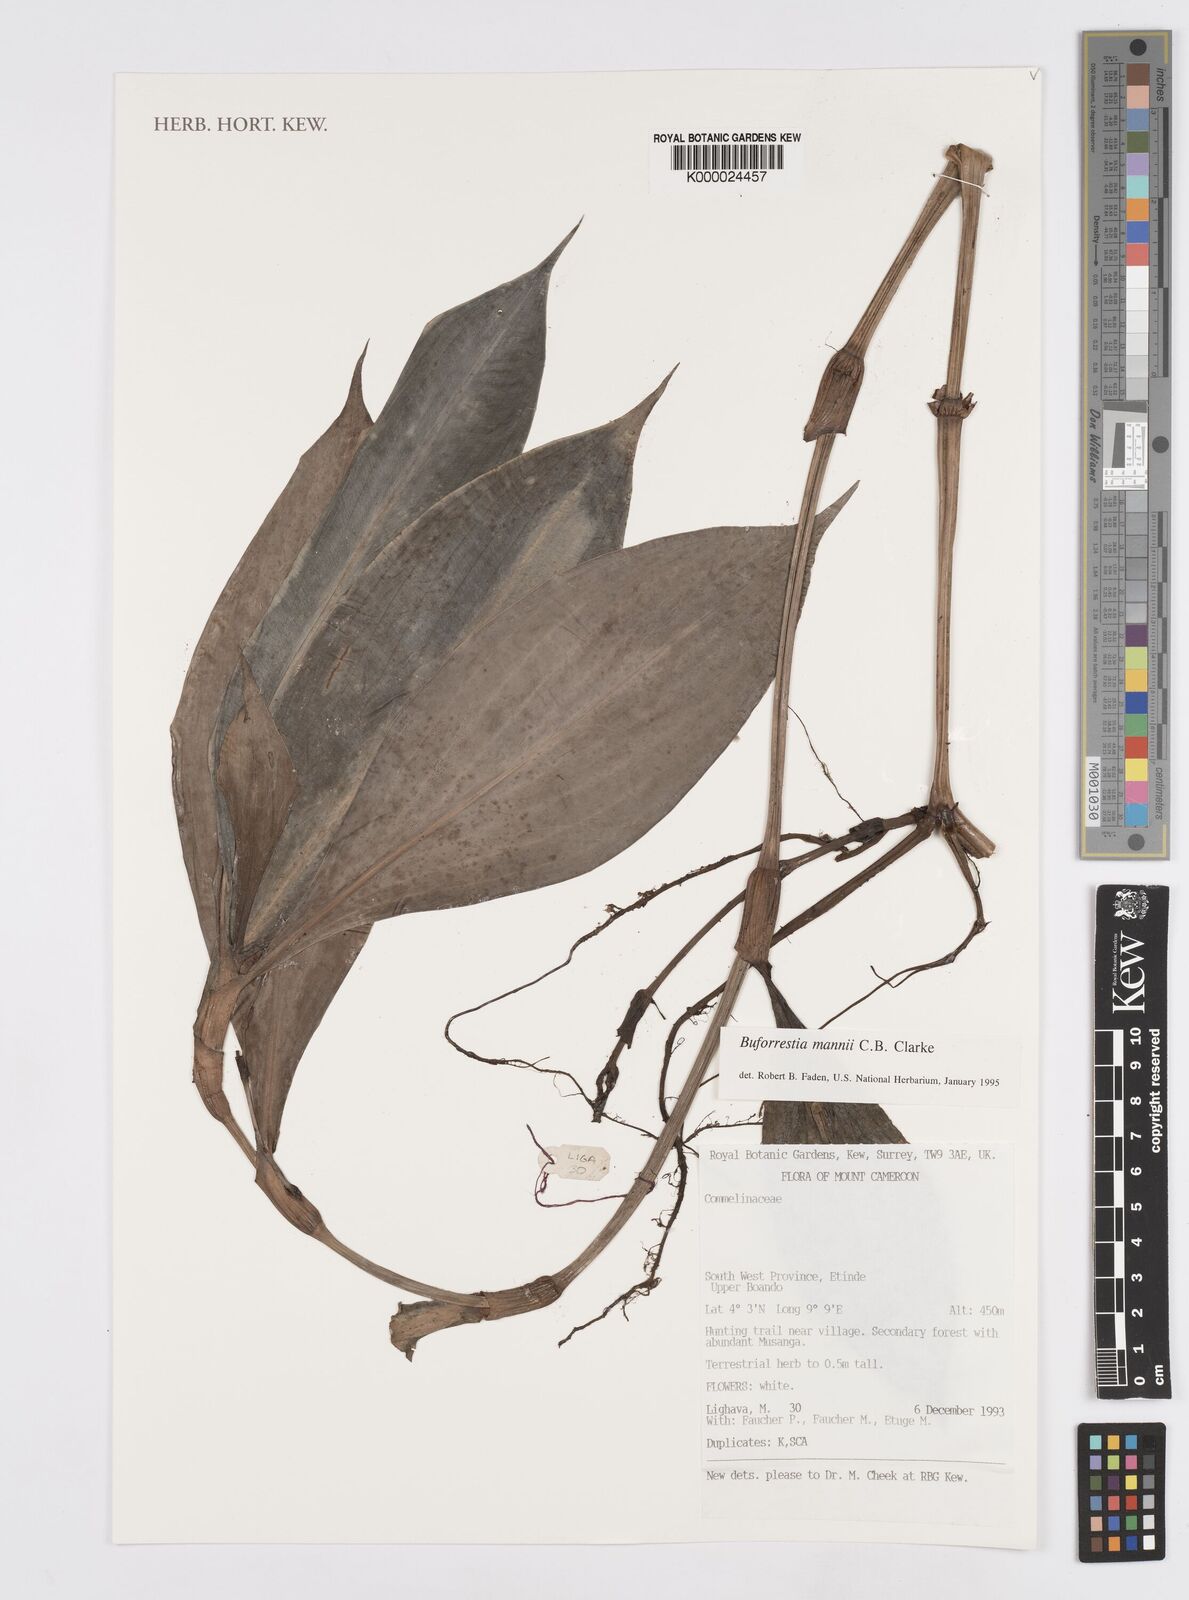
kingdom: Plantae
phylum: Tracheophyta
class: Liliopsida
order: Commelinales
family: Commelinaceae
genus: Buforrestia
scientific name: Buforrestia mannii
